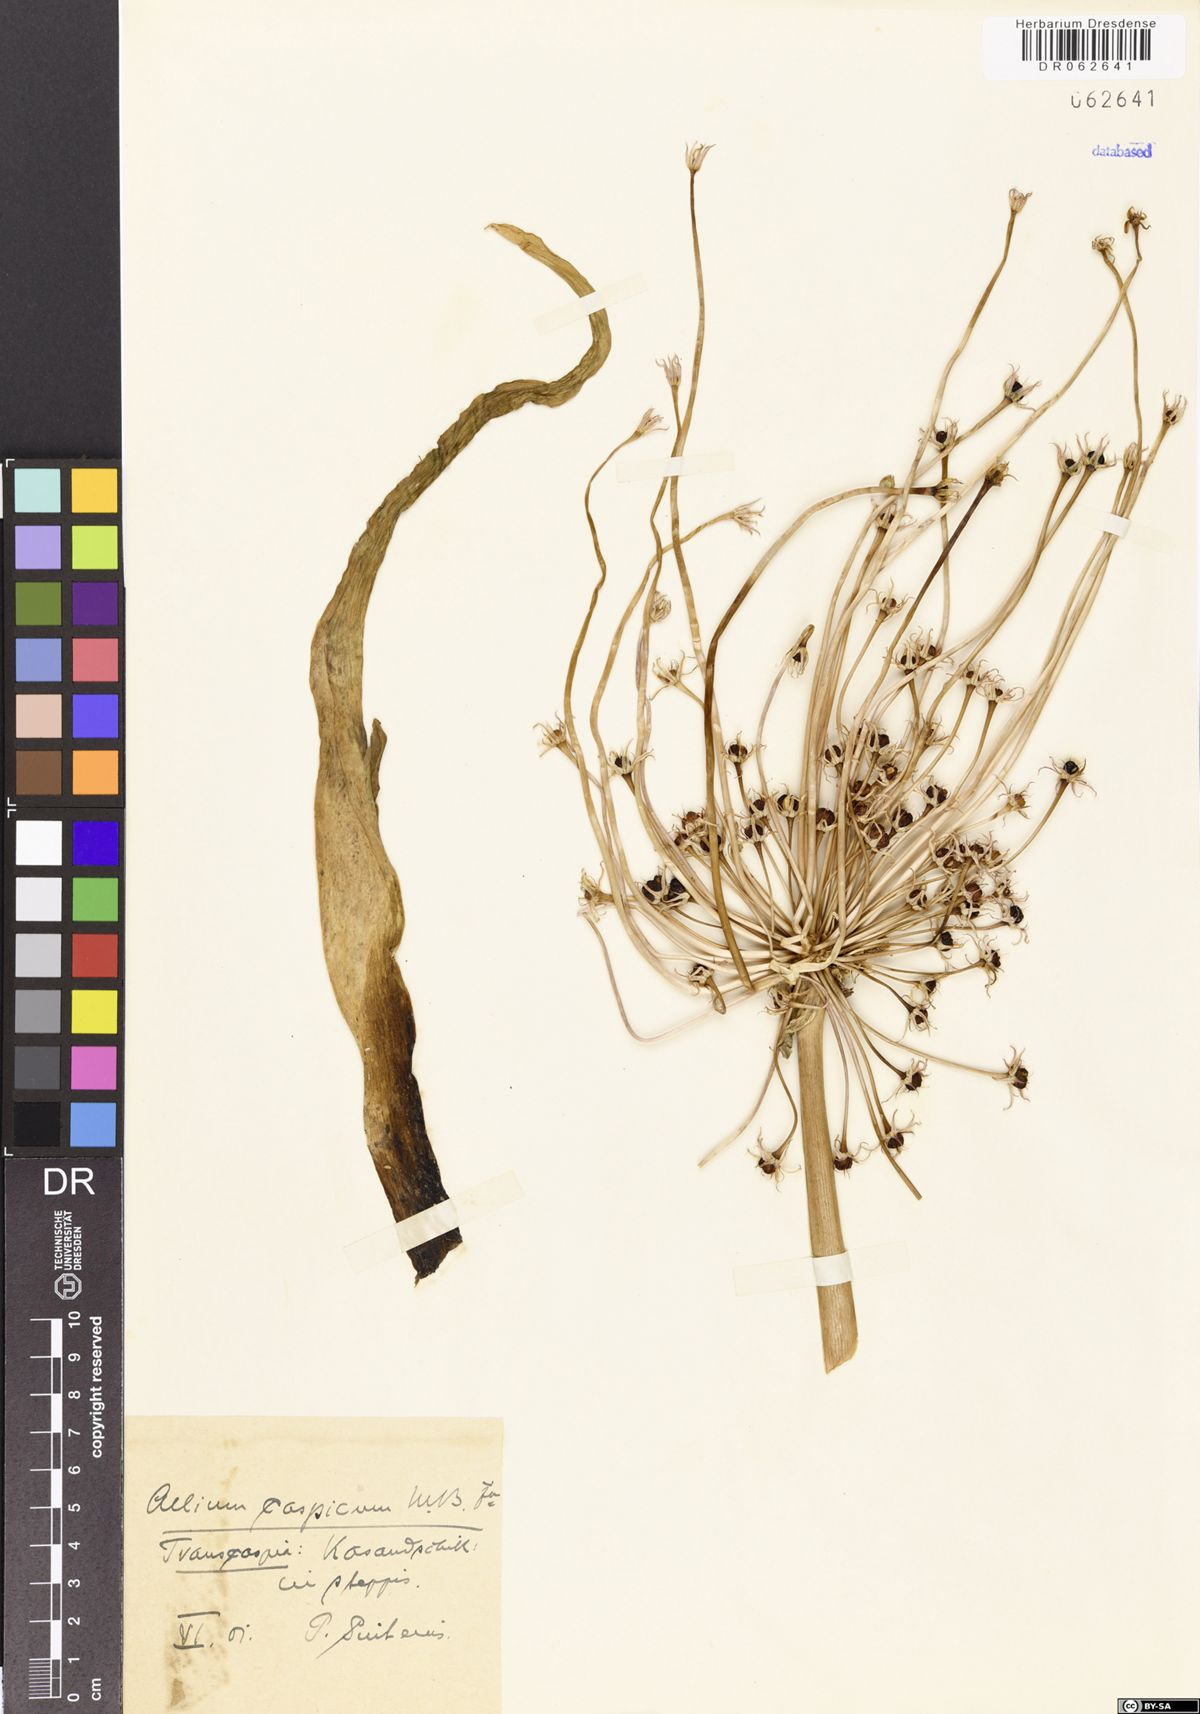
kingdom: Plantae
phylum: Tracheophyta
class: Liliopsida
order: Asparagales
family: Amaryllidaceae
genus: Allium
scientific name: Allium caspium
